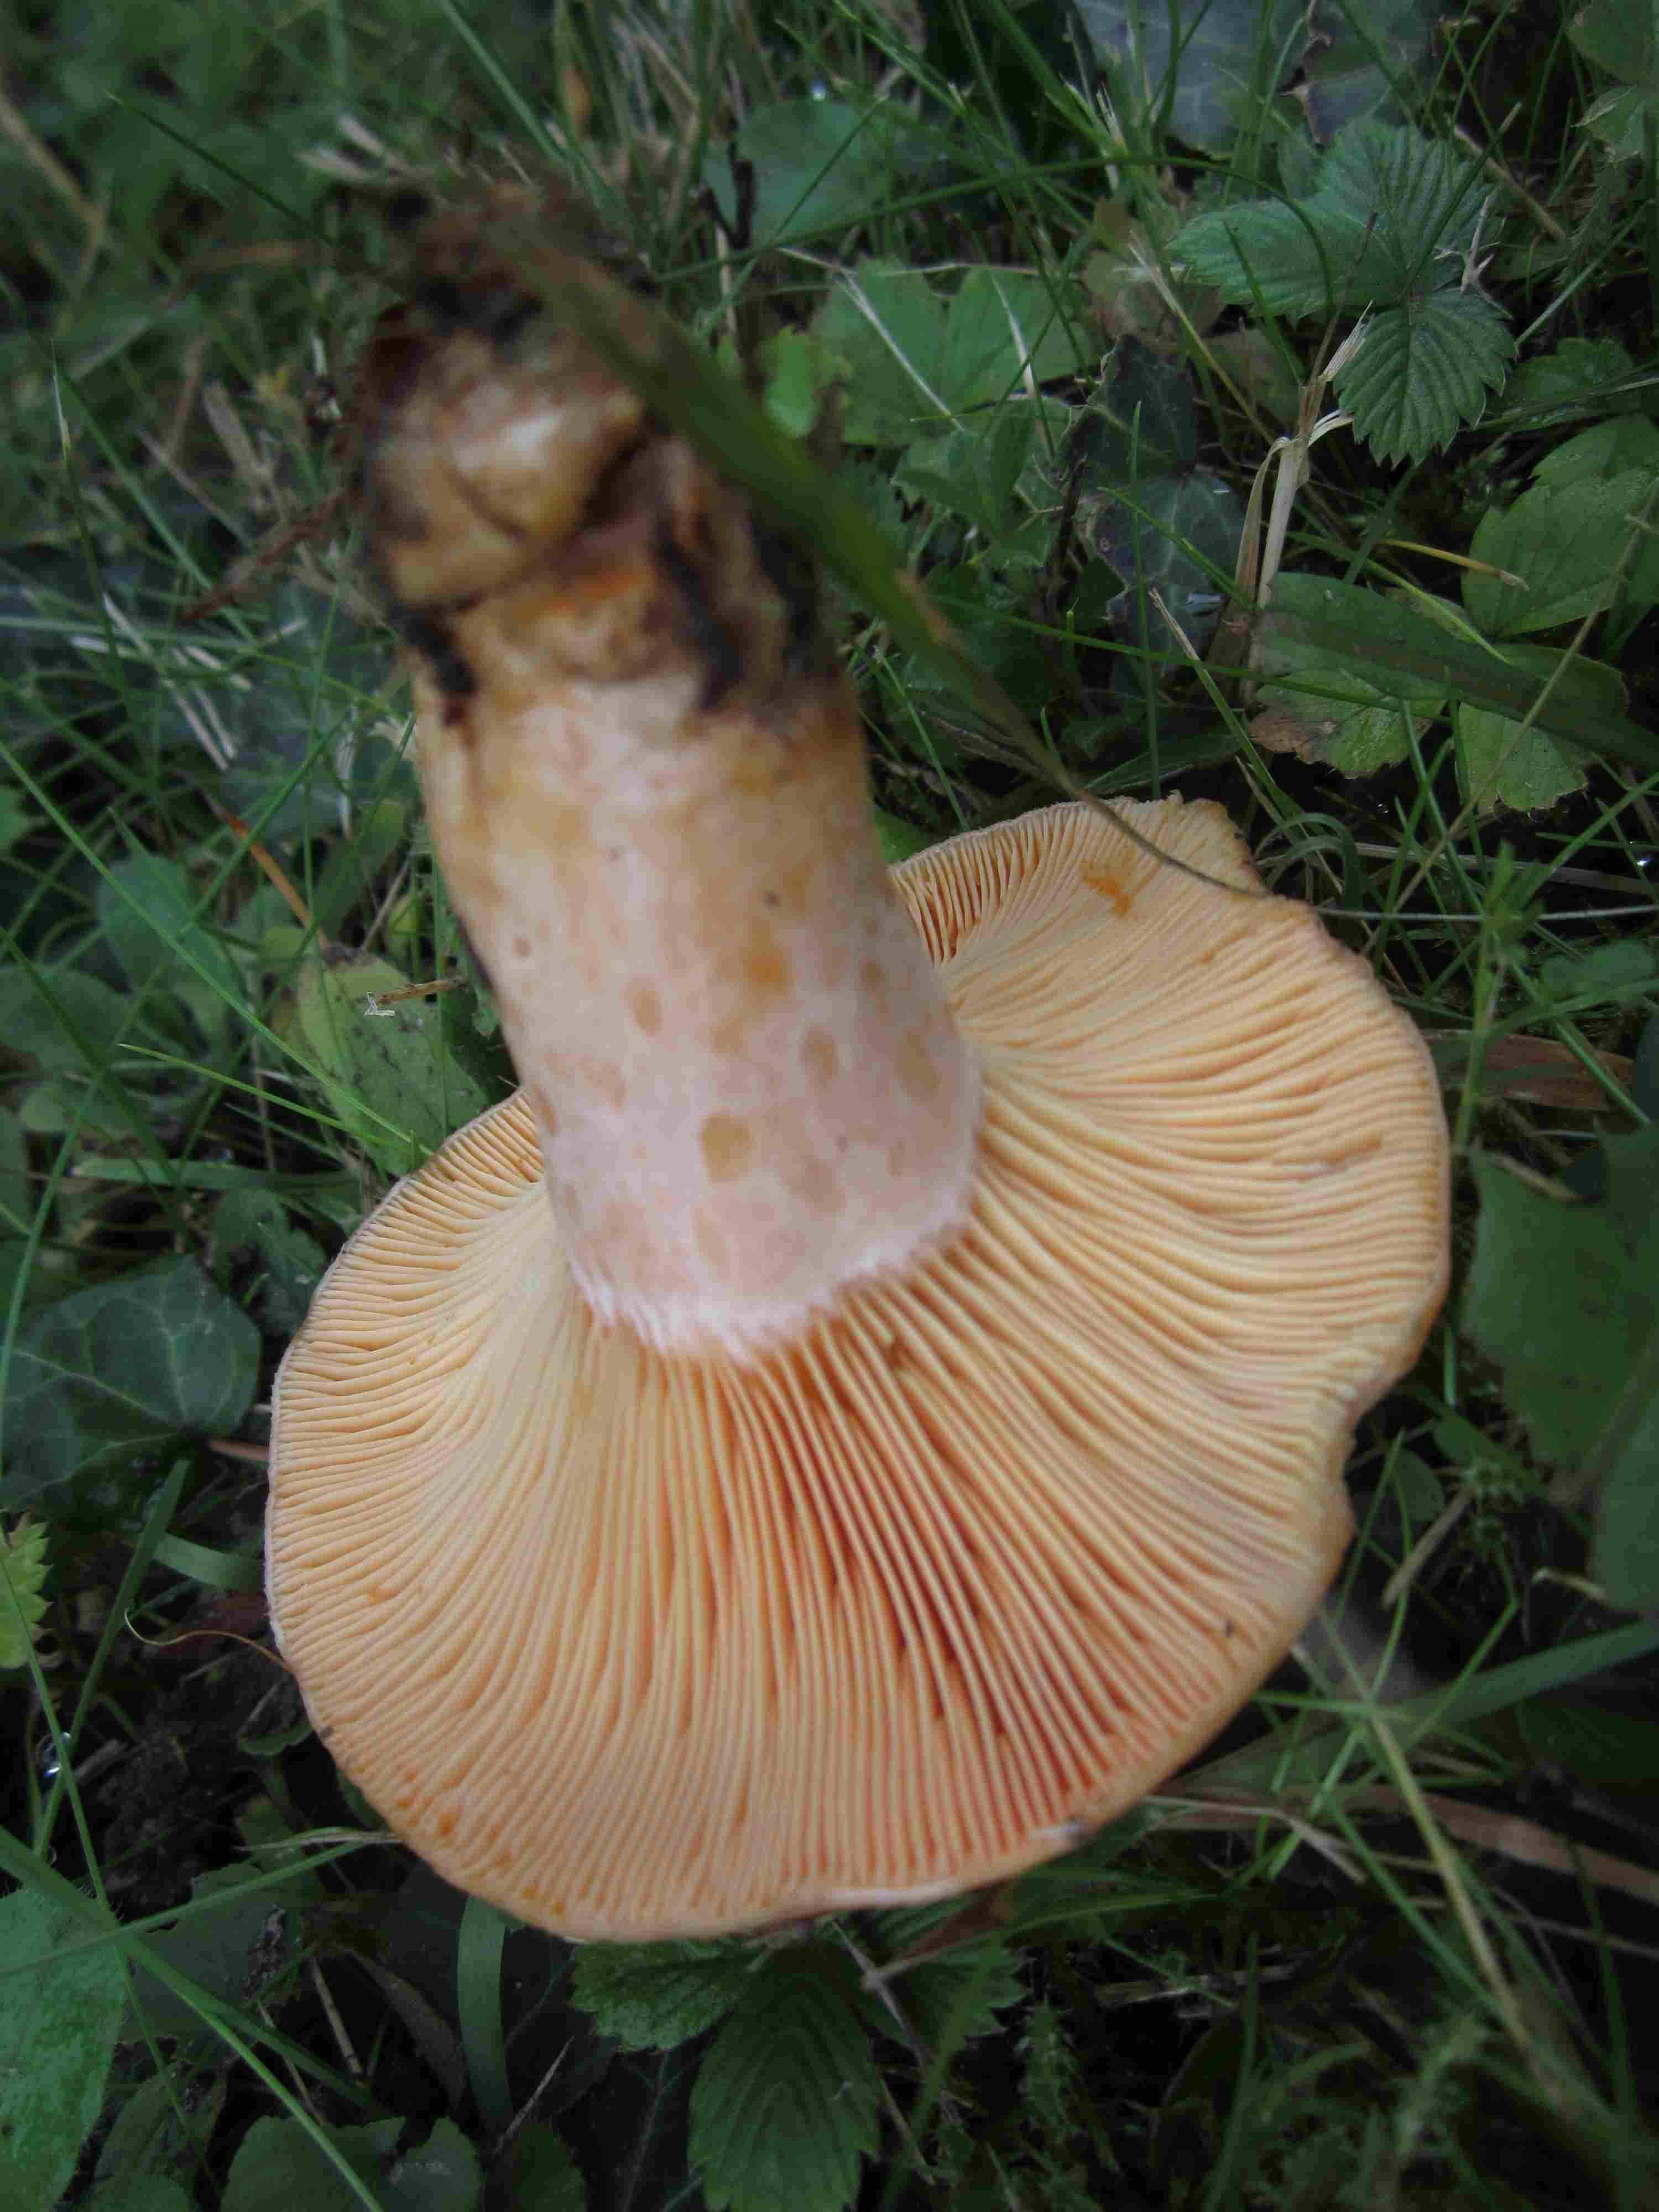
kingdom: Fungi
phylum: Basidiomycota
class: Agaricomycetes
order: Russulales
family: Russulaceae
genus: Lactarius
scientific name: Lactarius deliciosus
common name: velsmagende mælkehat
